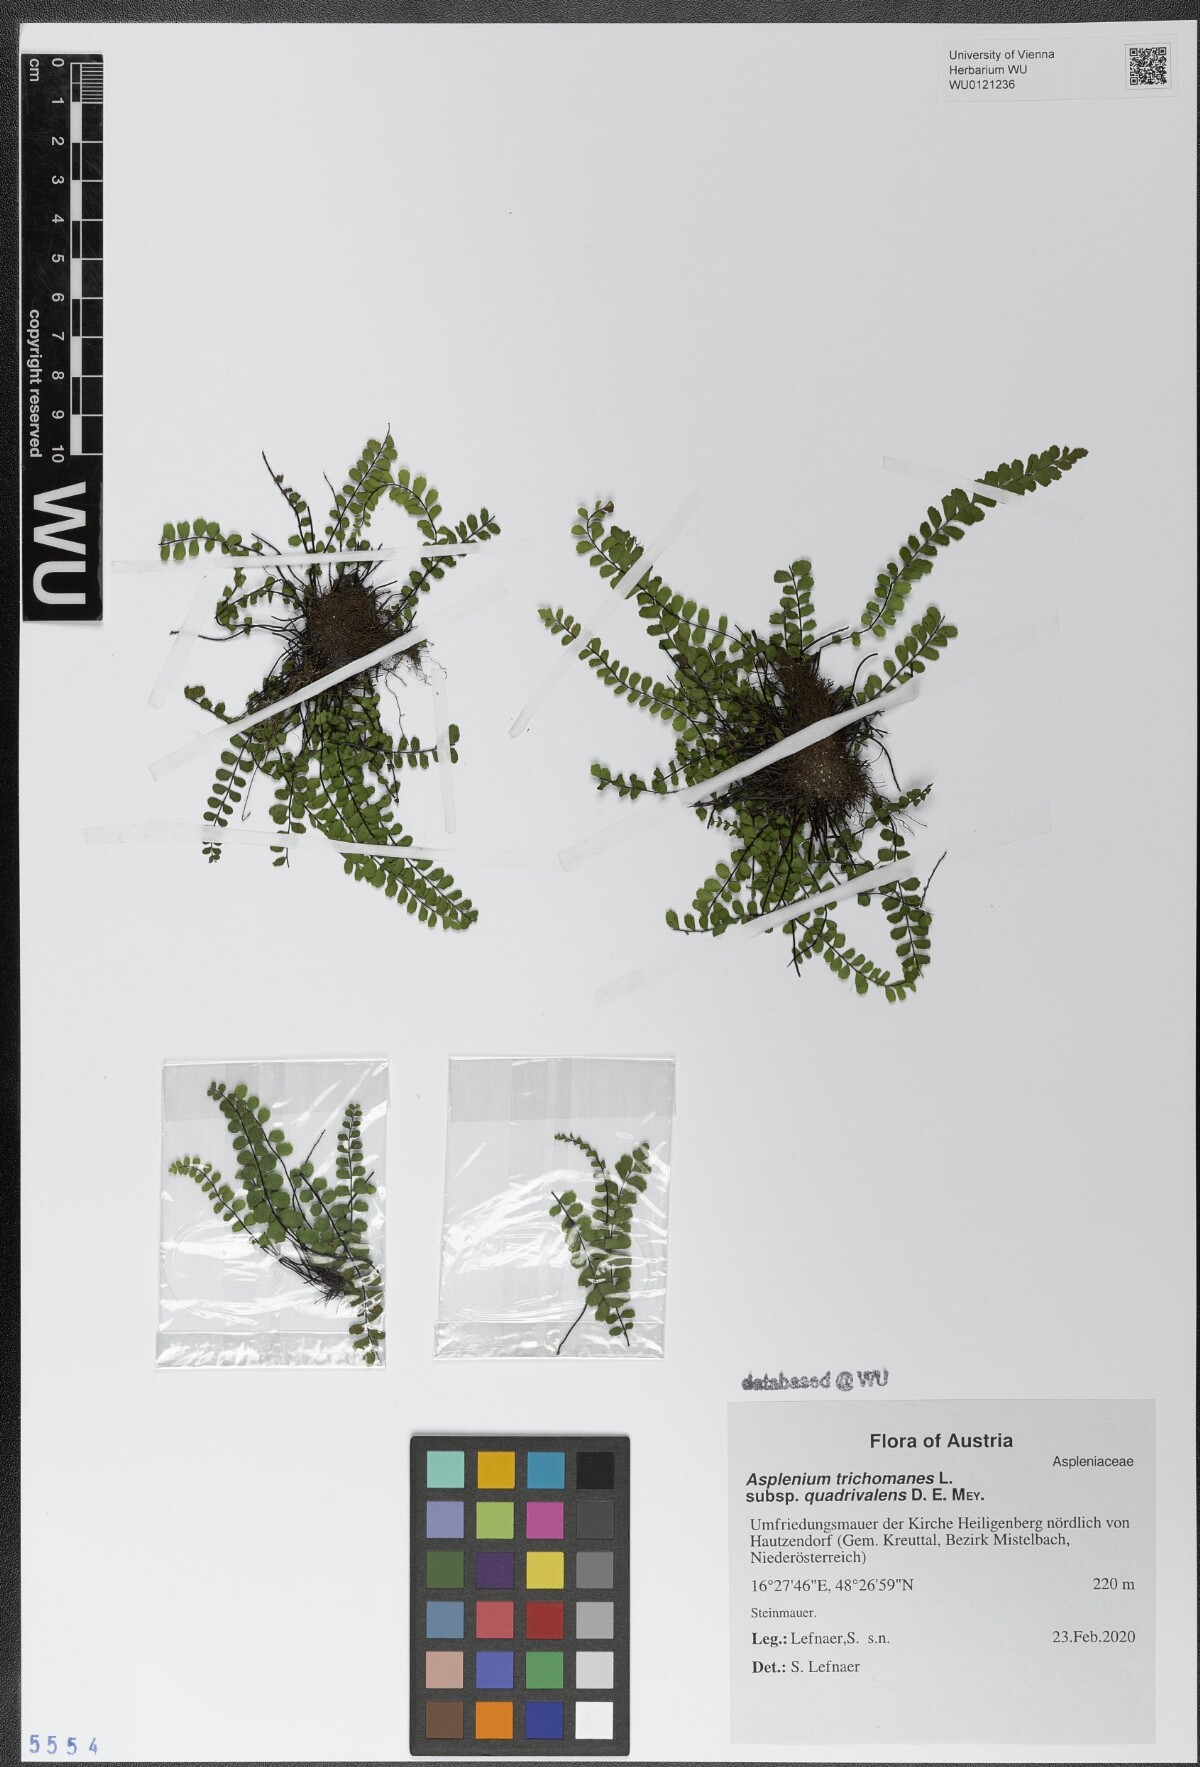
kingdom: Plantae
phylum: Tracheophyta
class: Polypodiopsida
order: Polypodiales
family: Aspleniaceae
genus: Asplenium
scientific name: Asplenium quadrivalens
